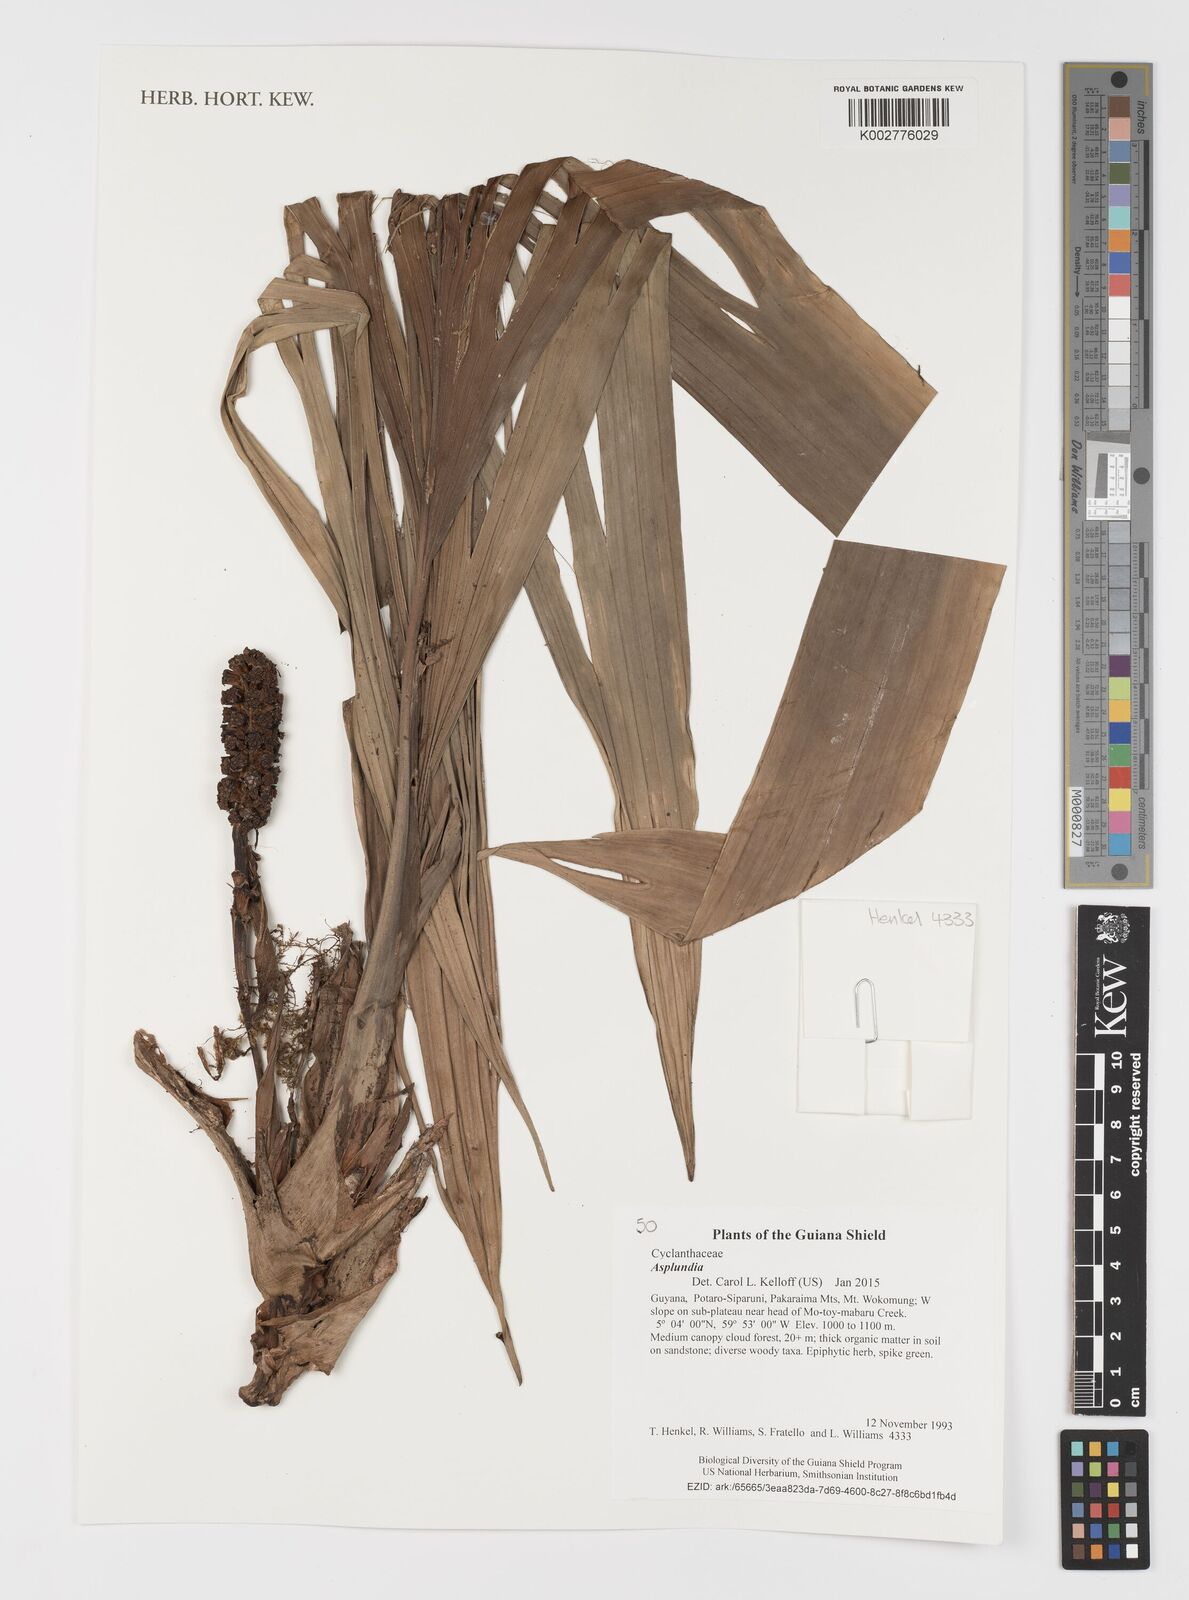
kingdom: Plantae
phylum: Tracheophyta
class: Liliopsida
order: Pandanales
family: Cyclanthaceae
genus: Asplundia
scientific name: Asplundia
